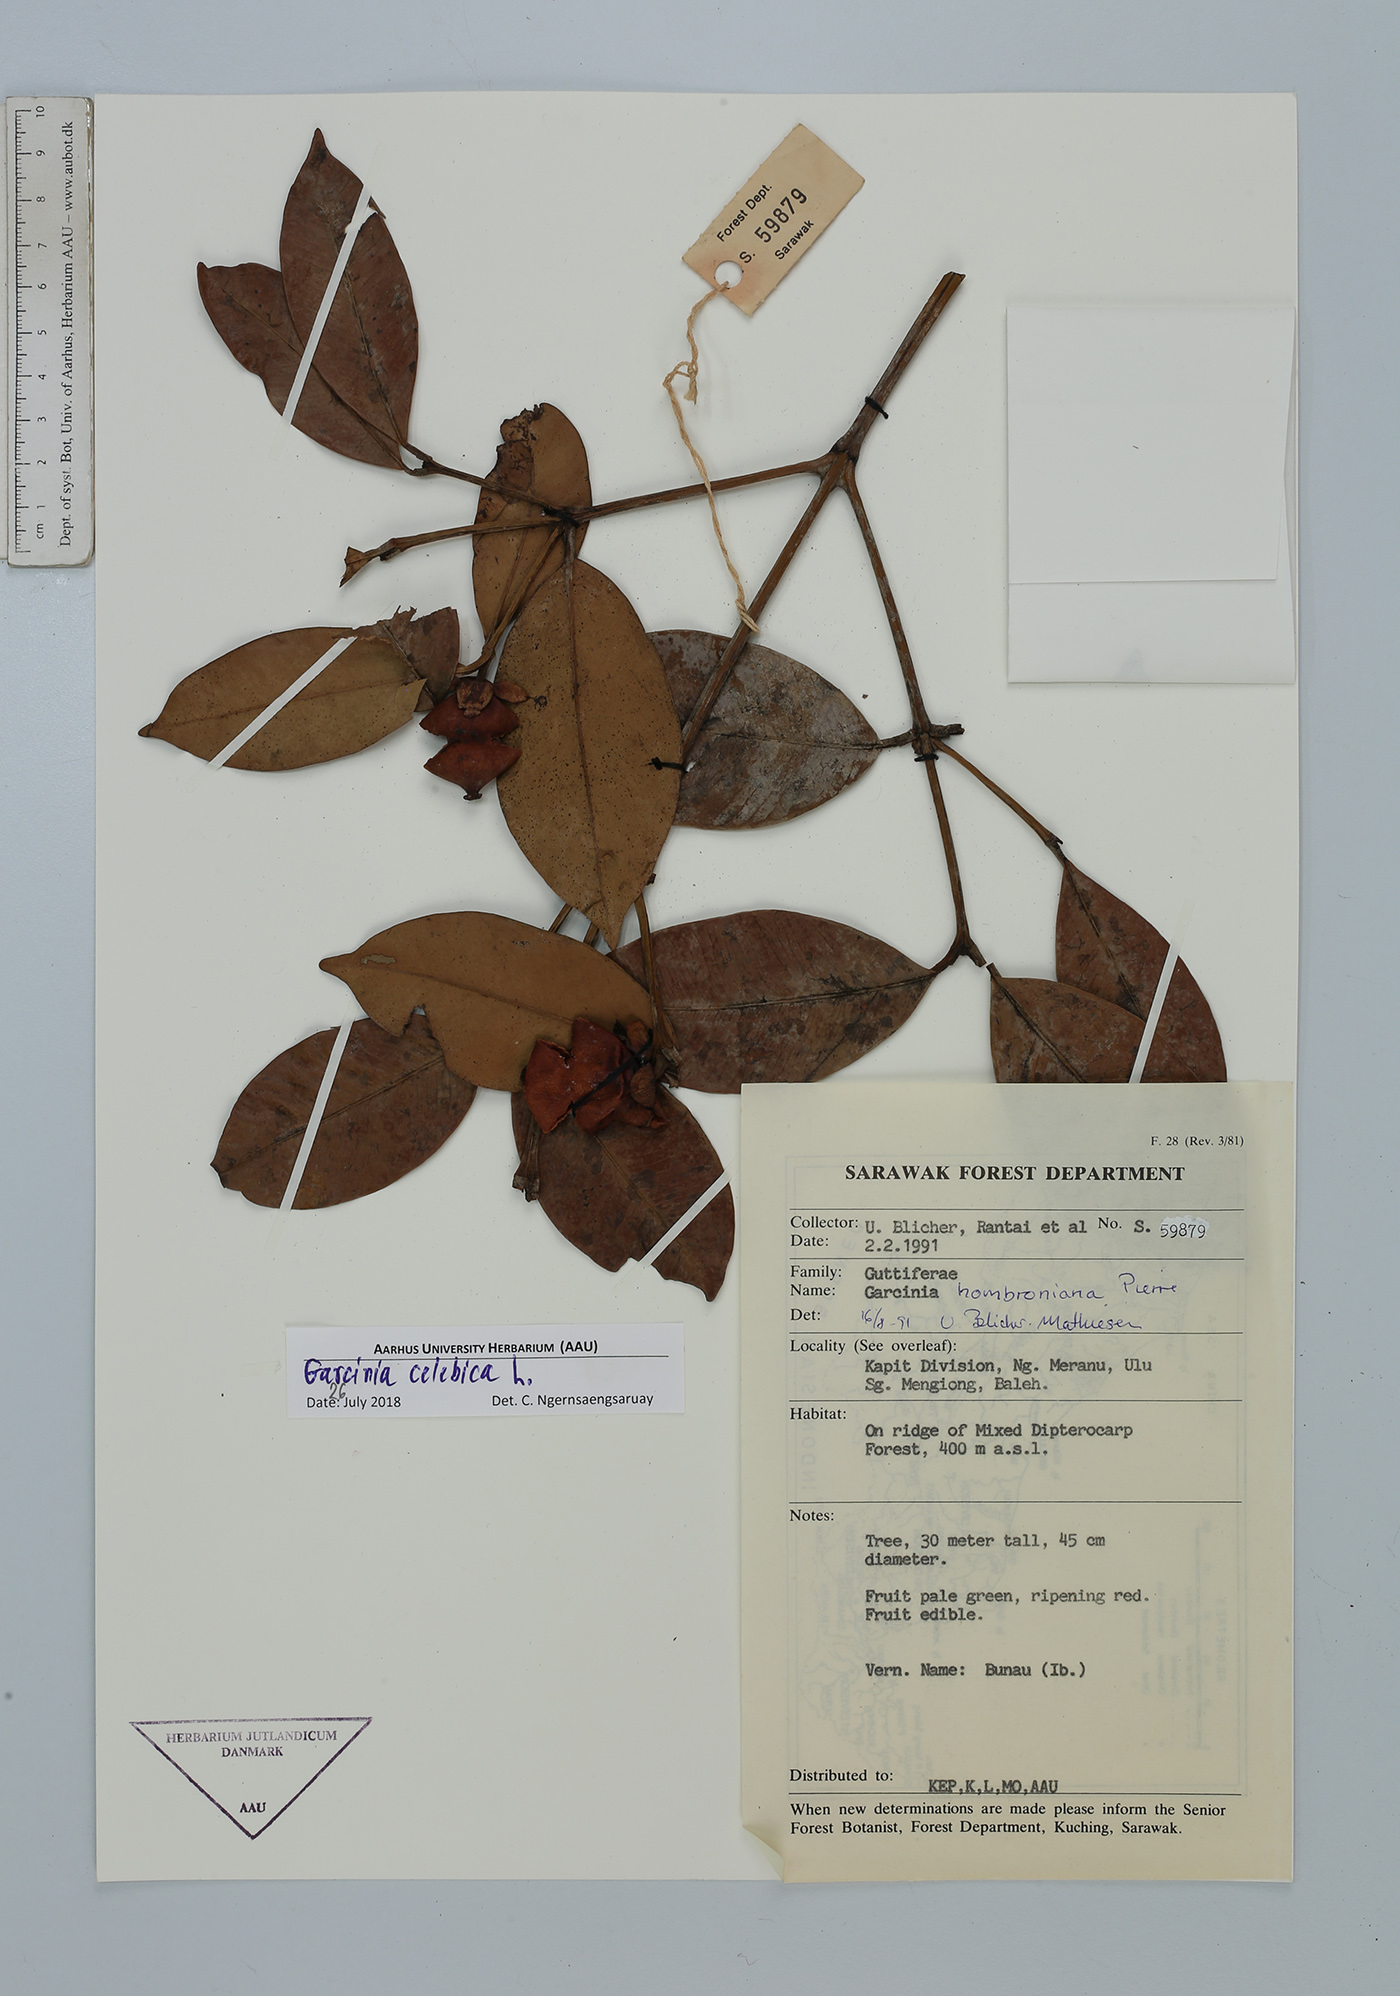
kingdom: Plantae
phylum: Tracheophyta
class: Magnoliopsida
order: Malpighiales
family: Clusiaceae
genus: Garcinia
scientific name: Garcinia celebica
